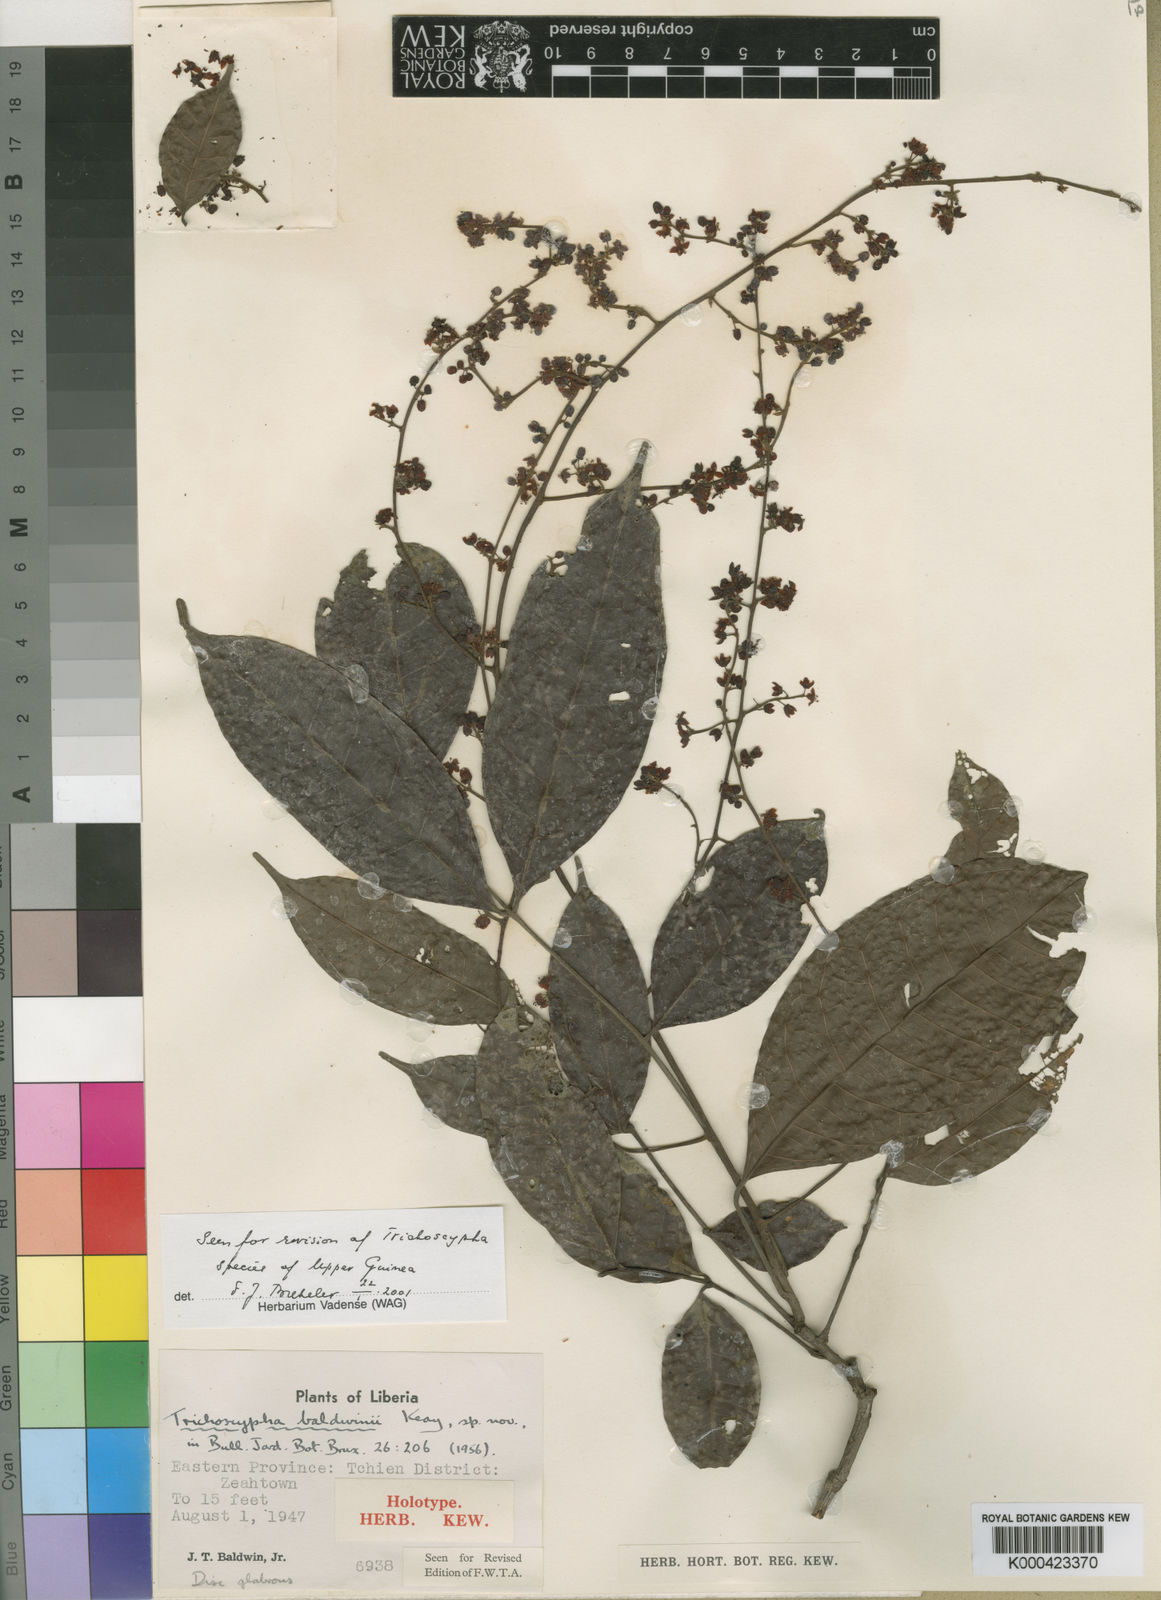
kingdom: Plantae
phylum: Tracheophyta
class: Magnoliopsida
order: Sapindales
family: Anacardiaceae
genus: Trichoscypha
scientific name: Trichoscypha baldwinii
